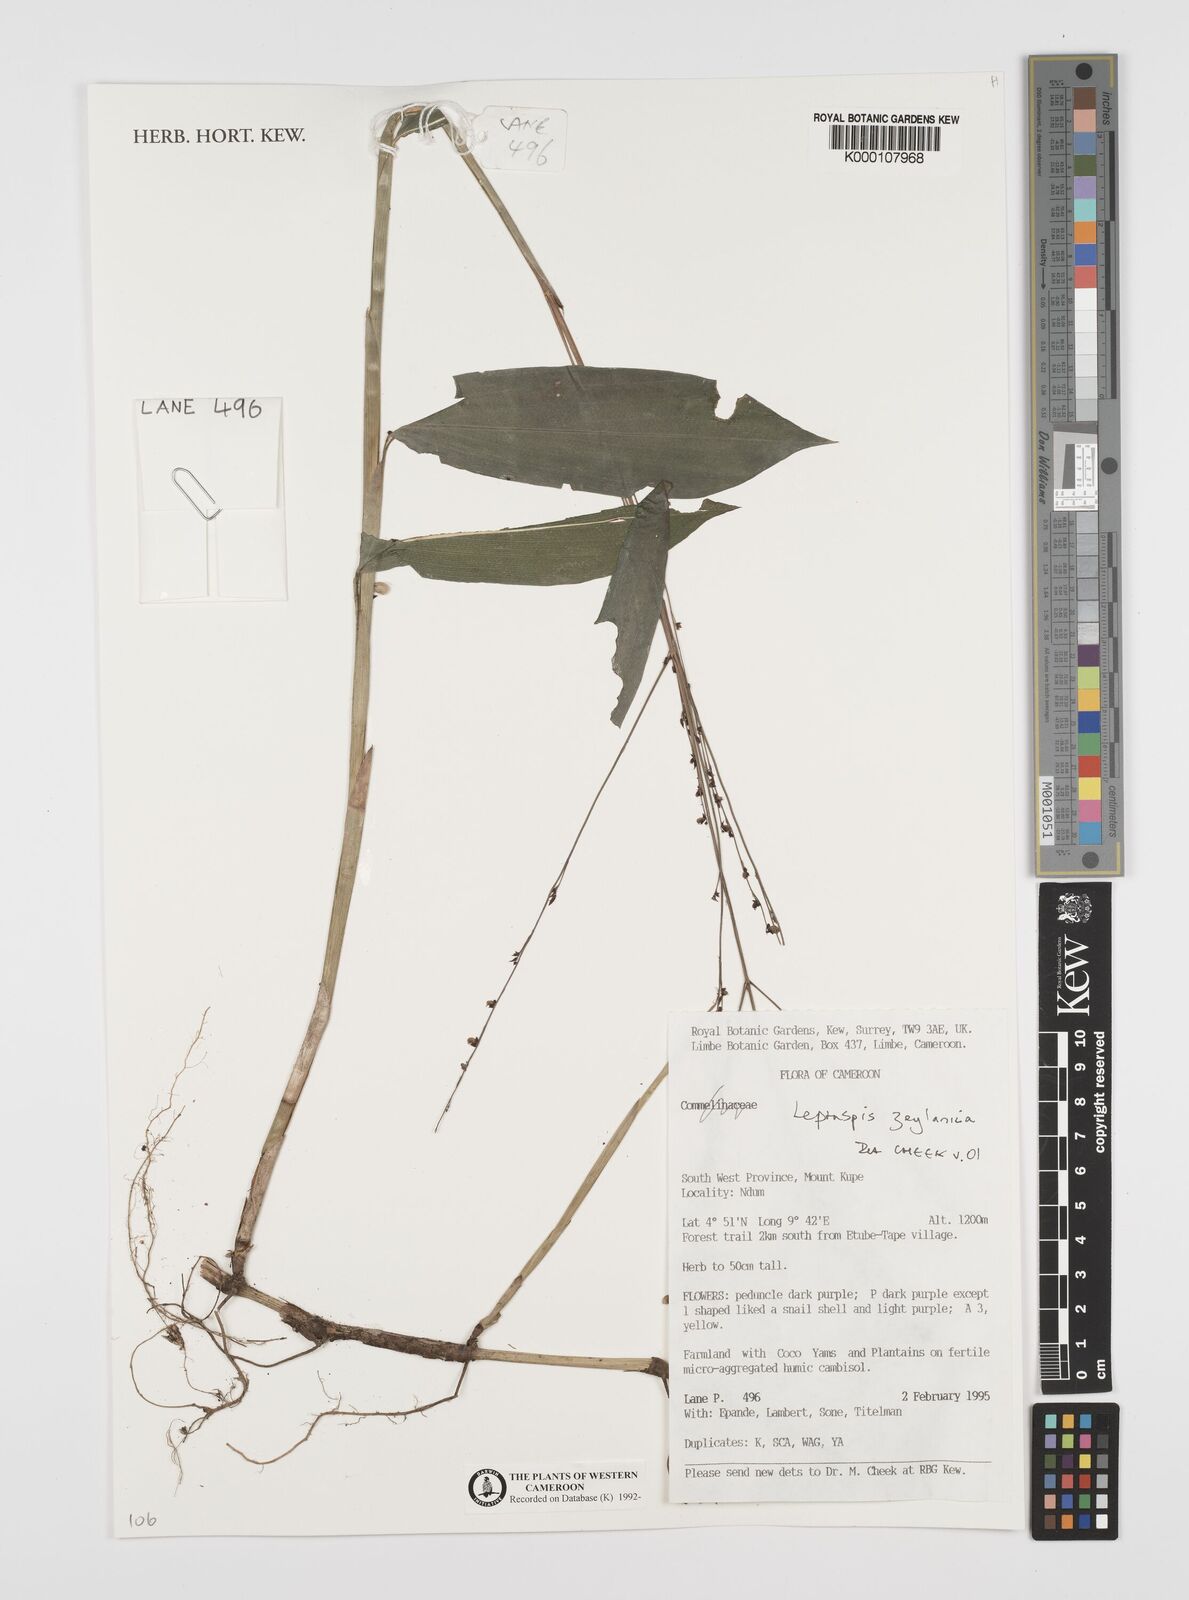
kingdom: Plantae
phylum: Tracheophyta
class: Liliopsida
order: Poales
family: Poaceae
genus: Leptaspis
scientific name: Leptaspis zeylanica
